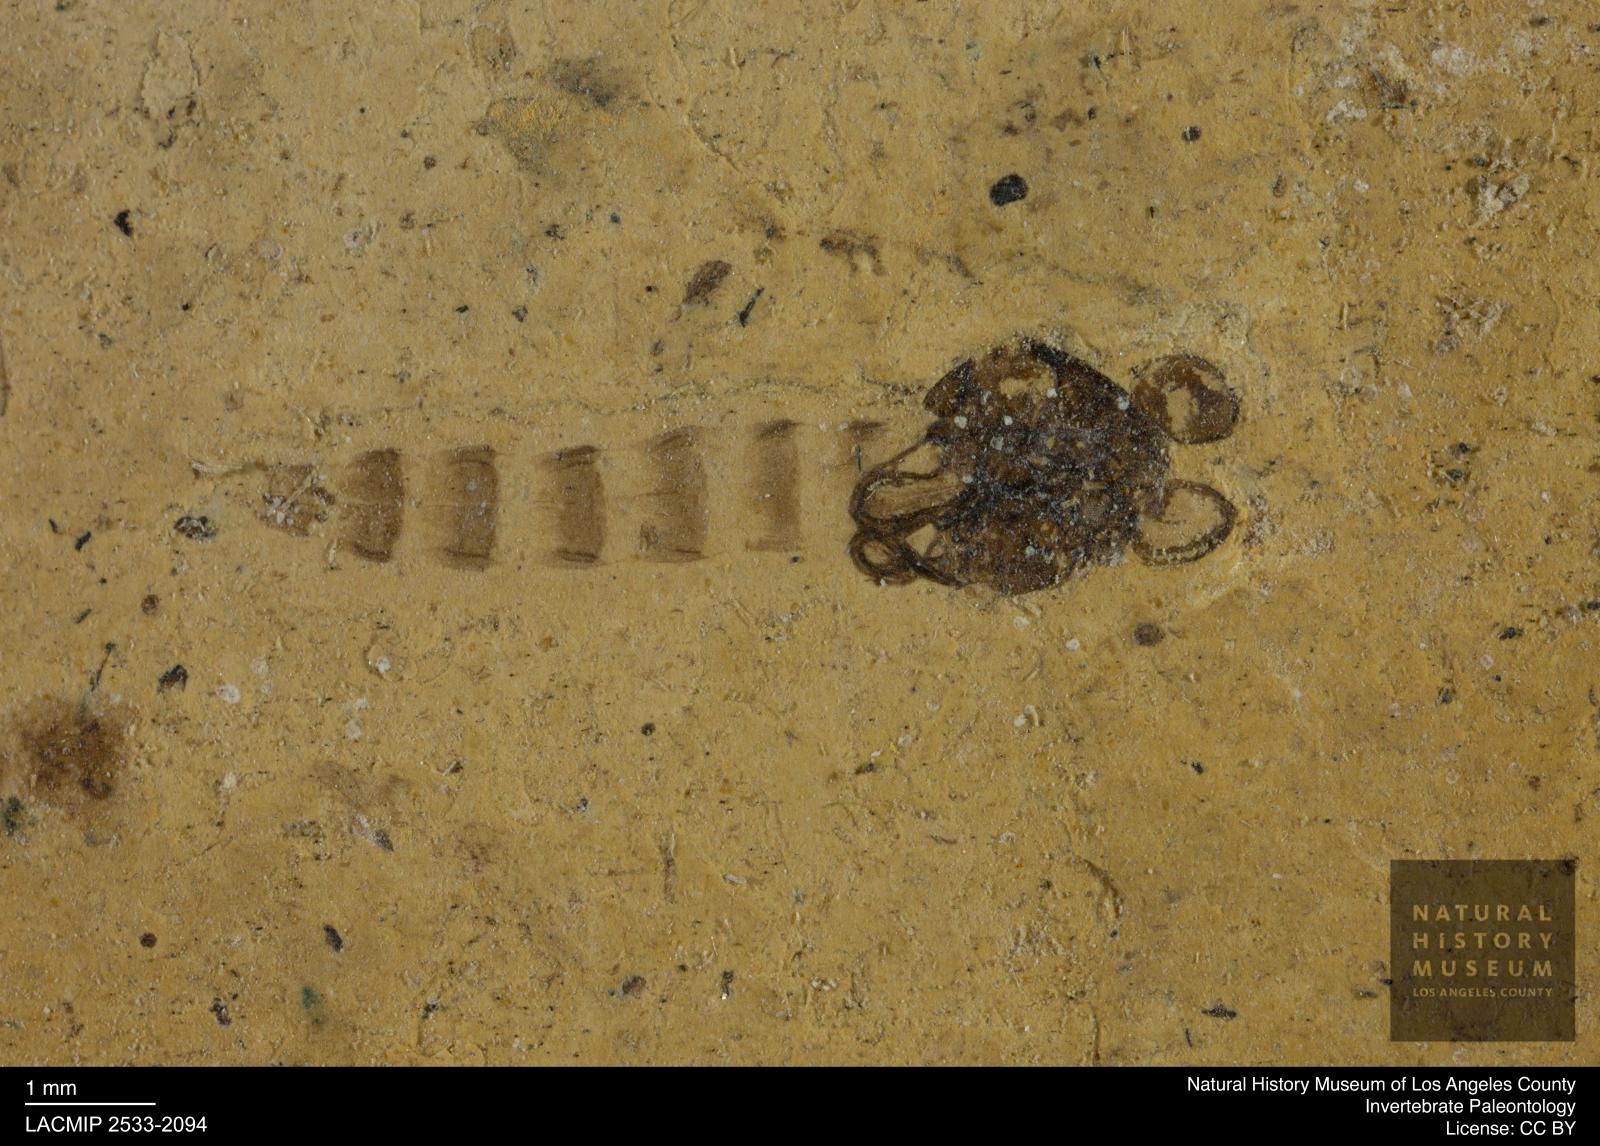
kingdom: Animalia
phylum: Arthropoda
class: Insecta
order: Diptera
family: Chironomidae
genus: Pelopiina
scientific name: Pelopiina
